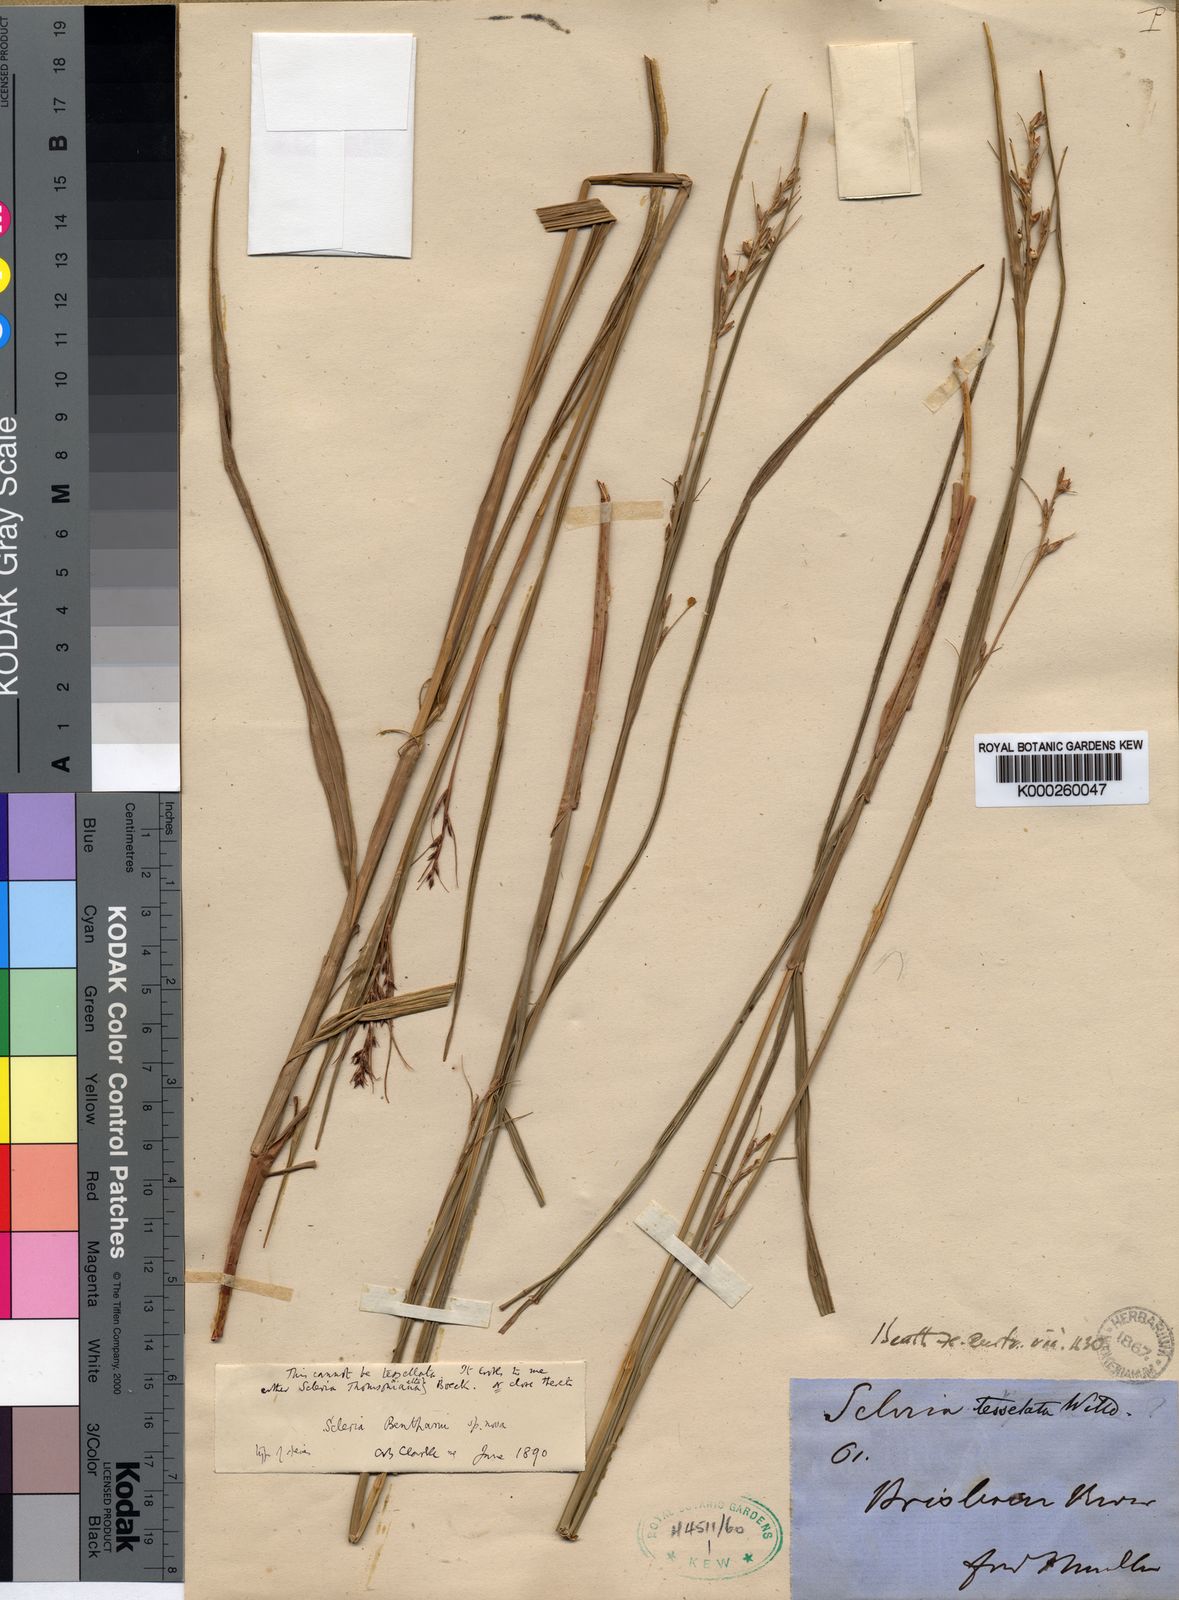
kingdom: Plantae
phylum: Tracheophyta
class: Liliopsida
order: Poales
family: Cyperaceae
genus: Scleria
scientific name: Scleria benthamii
